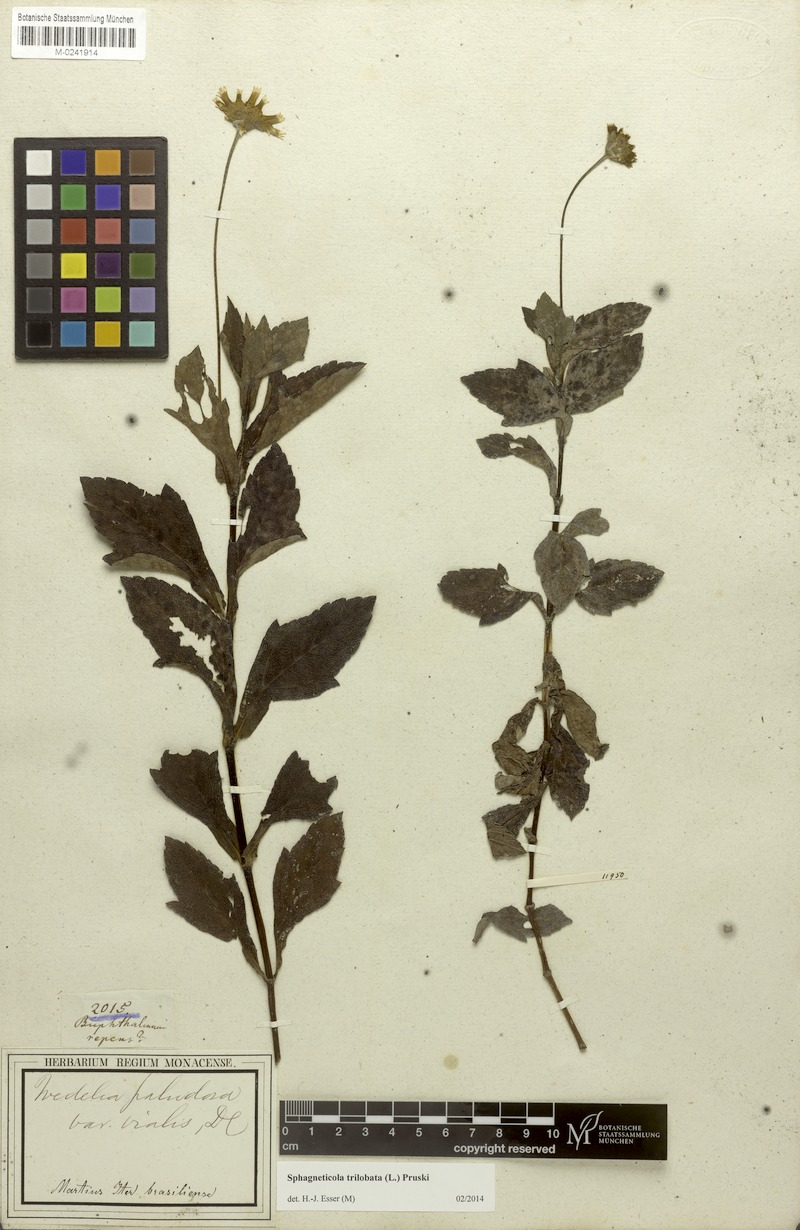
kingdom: Plantae
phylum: Tracheophyta
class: Magnoliopsida
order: Asterales
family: Asteraceae
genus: Sphagneticola
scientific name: Sphagneticola trilobata
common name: Bay biscayne creeping-oxeye
